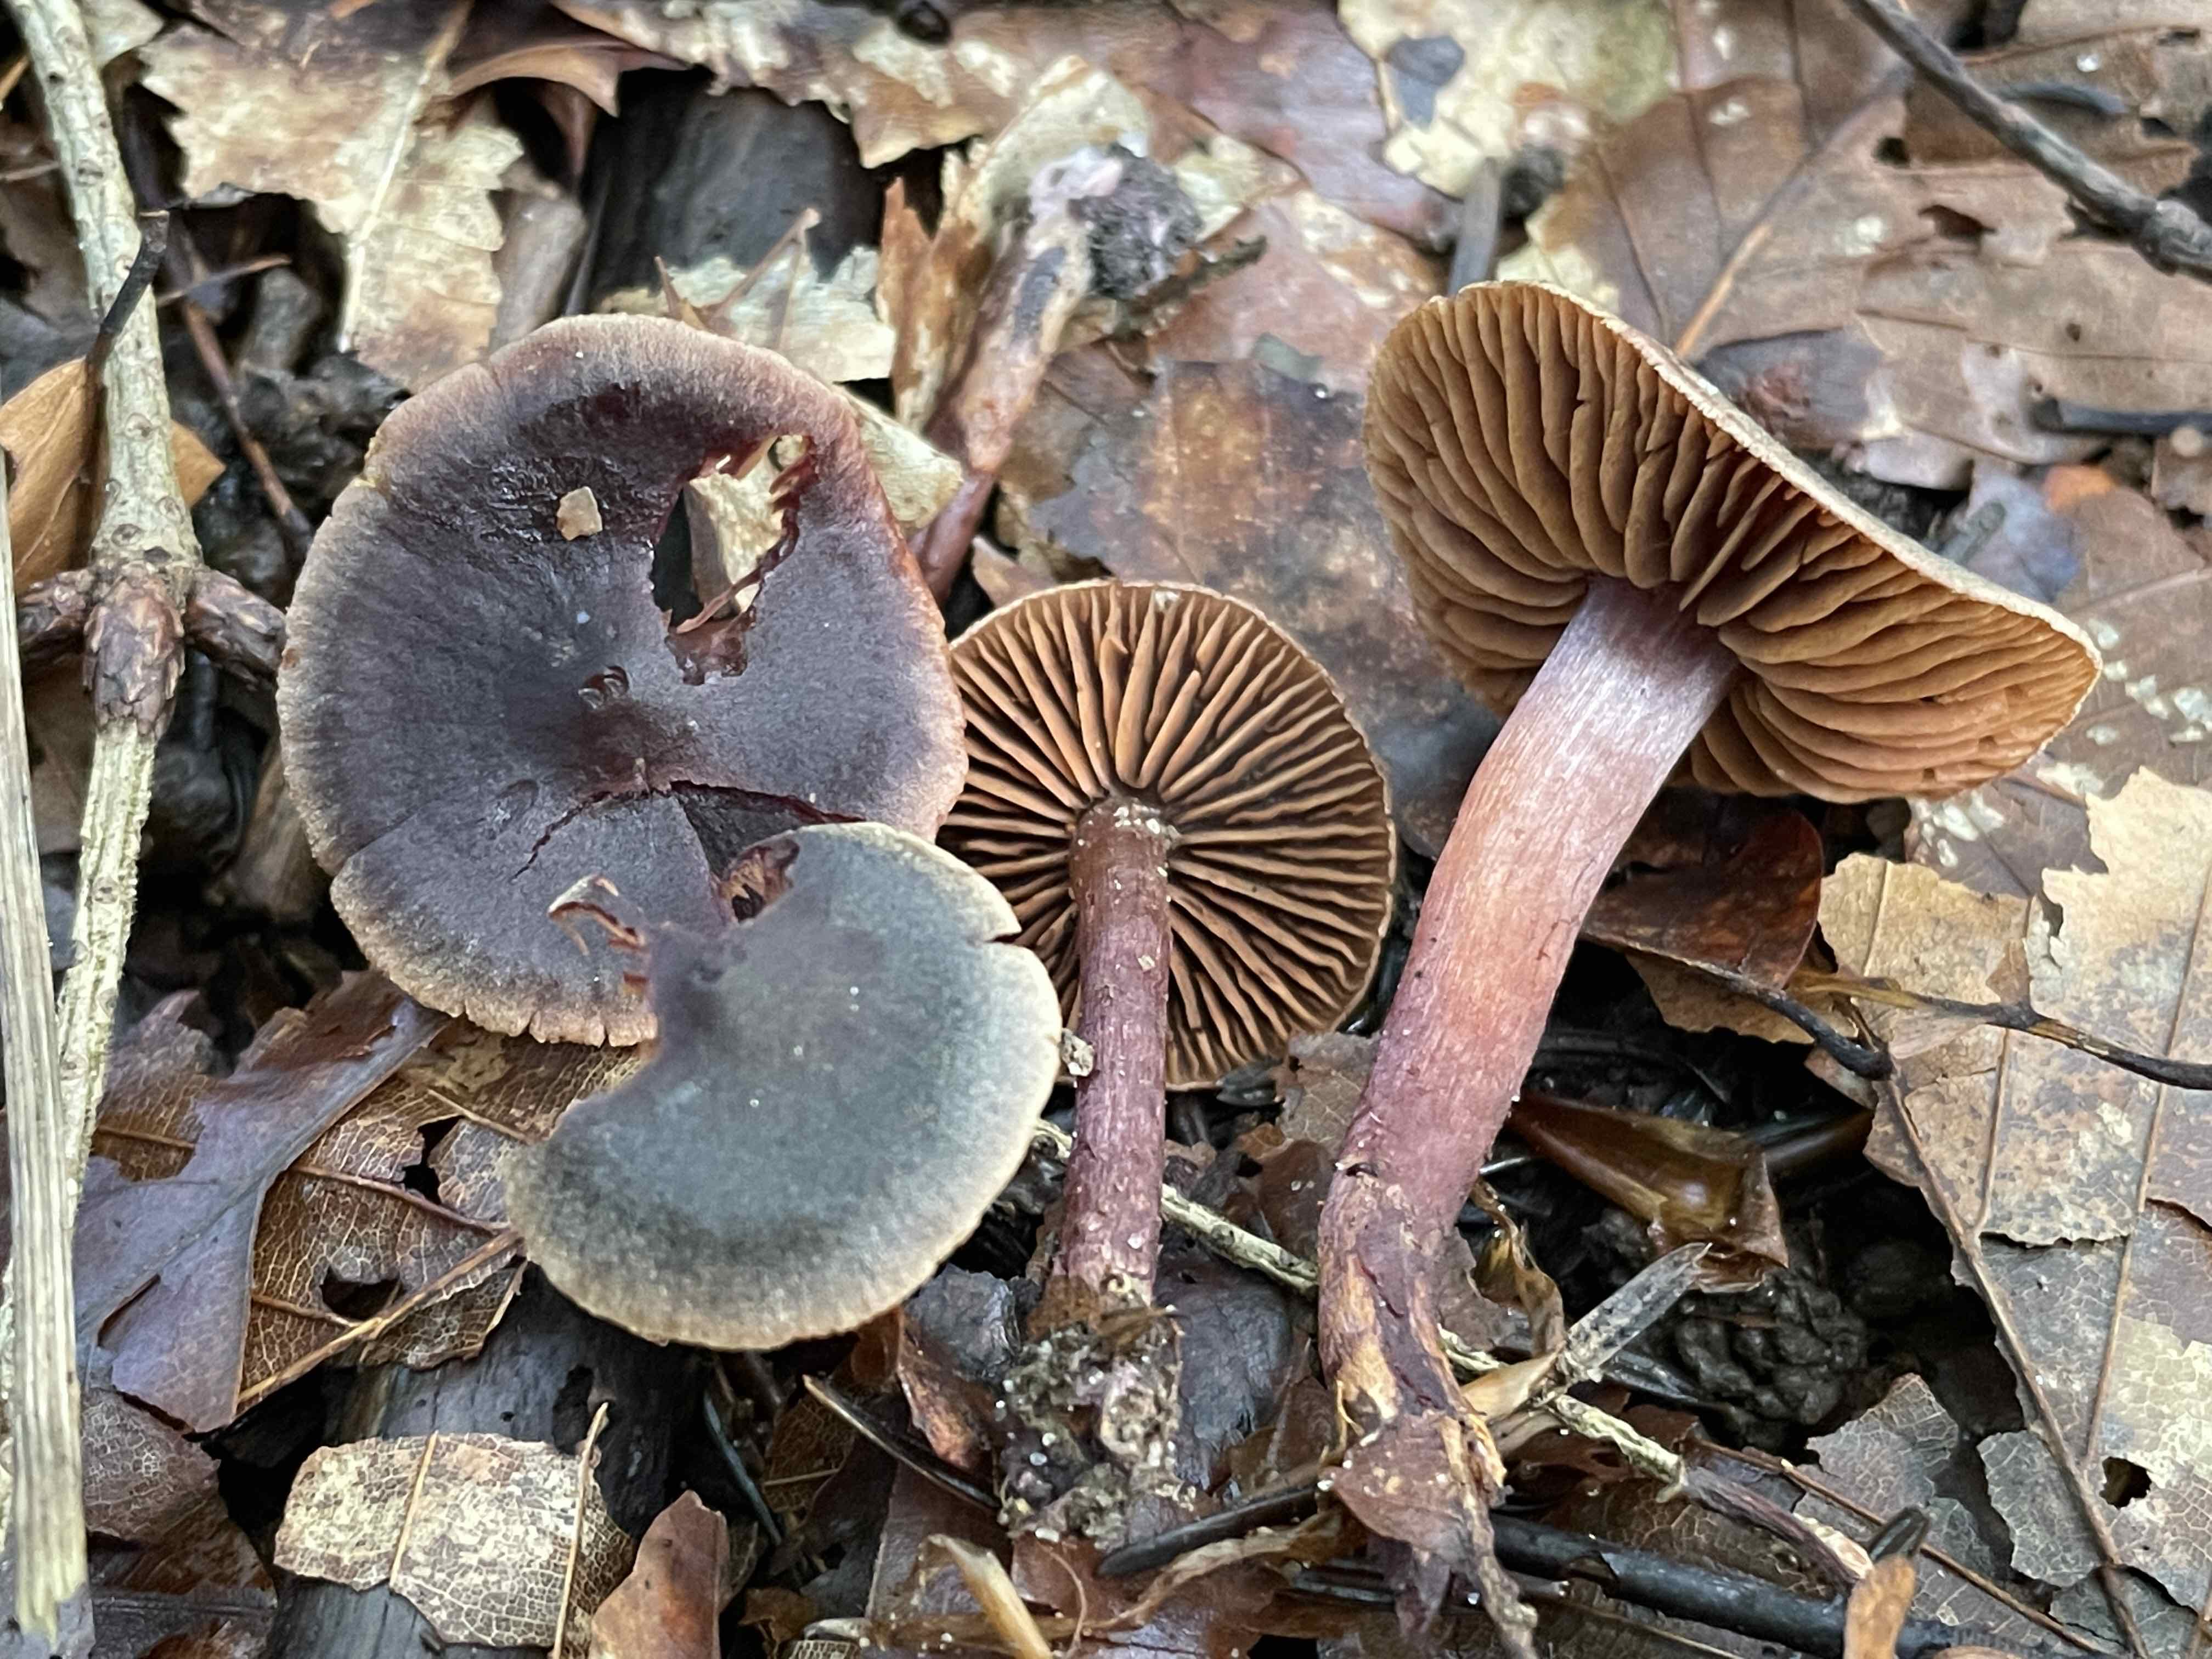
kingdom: Fungi
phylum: Basidiomycota
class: Agaricomycetes
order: Agaricales
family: Cortinariaceae
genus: Cortinarius
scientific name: Cortinarius anthracinus
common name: purpursort slørhat
